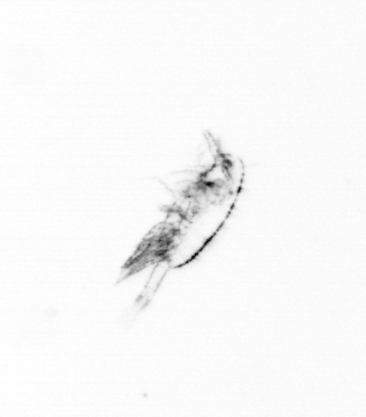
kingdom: Animalia
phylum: Arthropoda
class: Copepoda
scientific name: Copepoda
